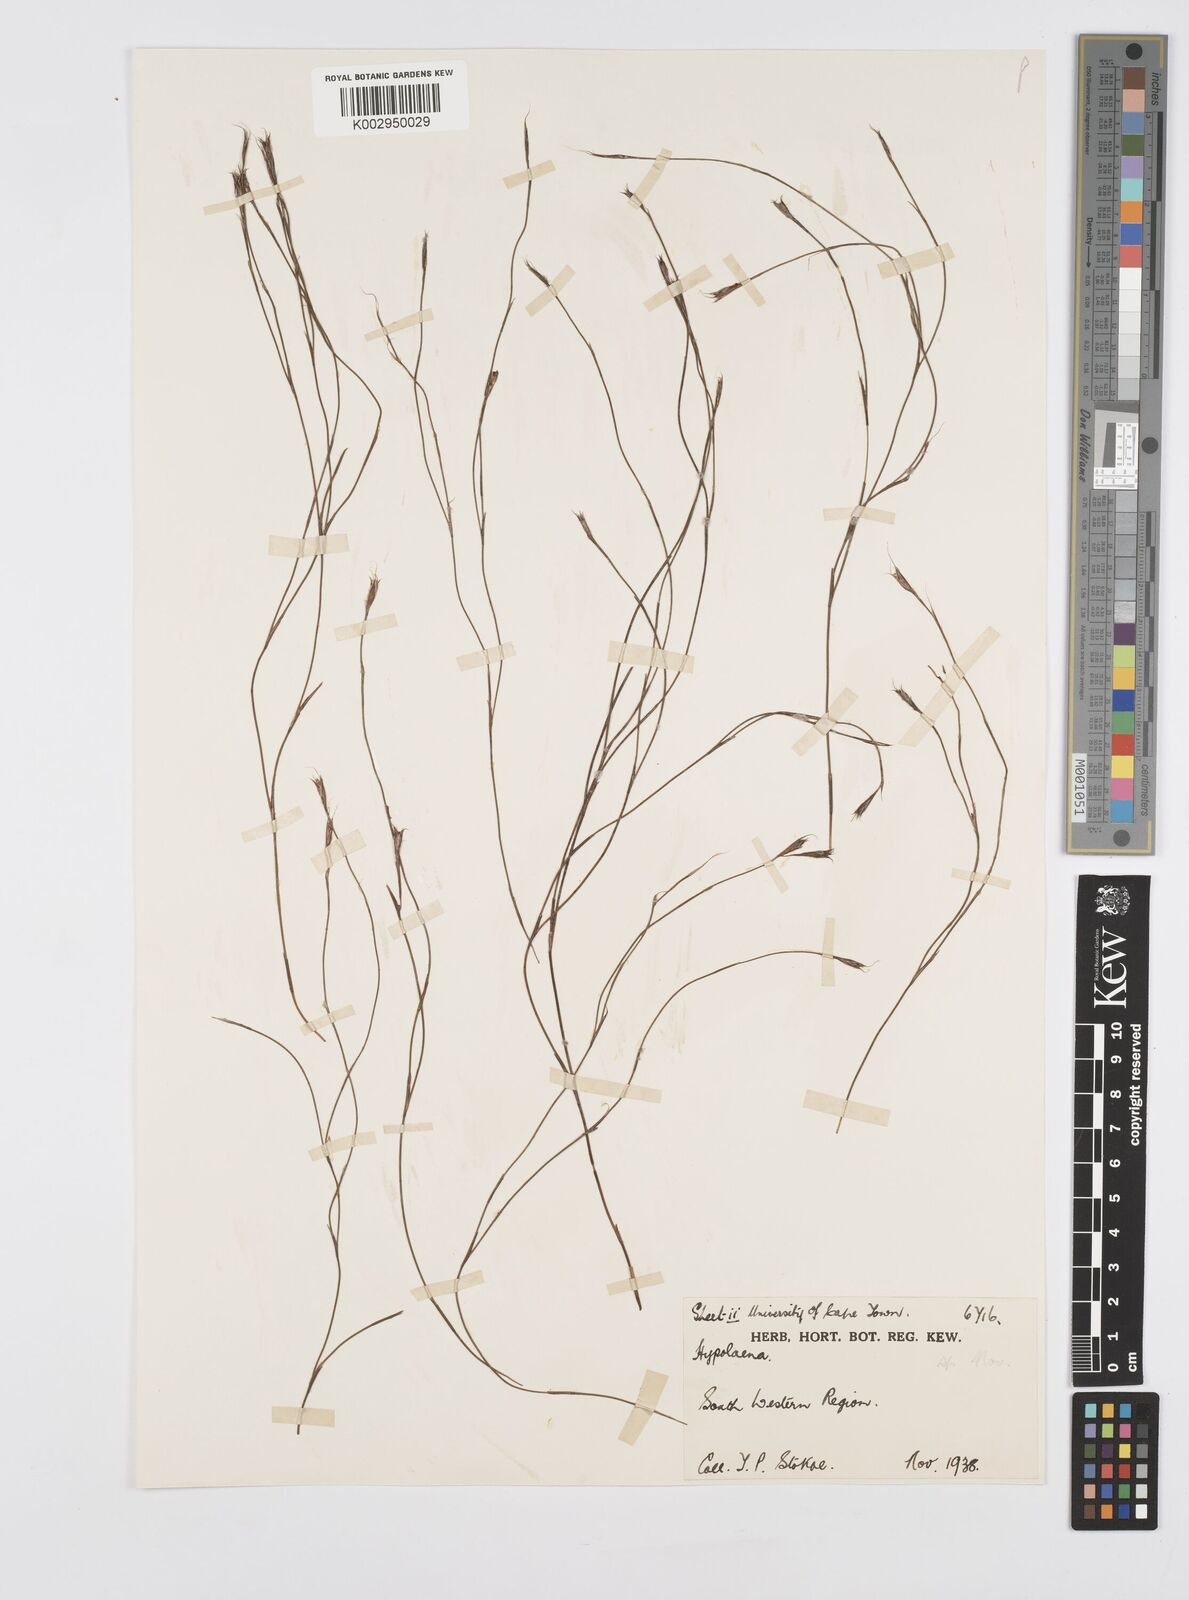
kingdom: Plantae
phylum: Tracheophyta
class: Liliopsida
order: Poales
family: Restionaceae
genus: Anthochortus
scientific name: Anthochortus
